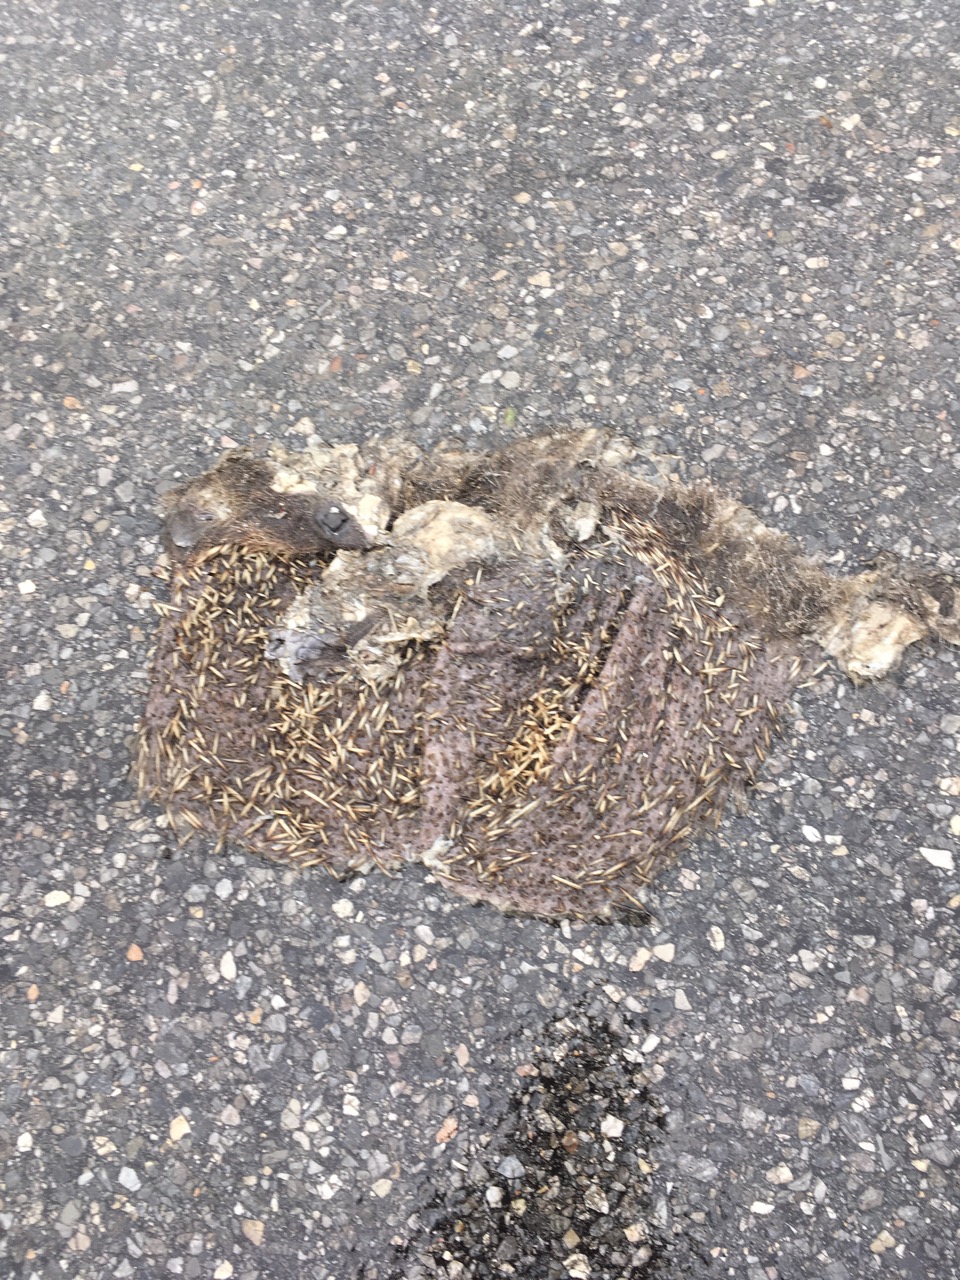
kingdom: Animalia
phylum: Chordata
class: Mammalia
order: Erinaceomorpha
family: Erinaceidae
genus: Erinaceus
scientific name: Erinaceus
